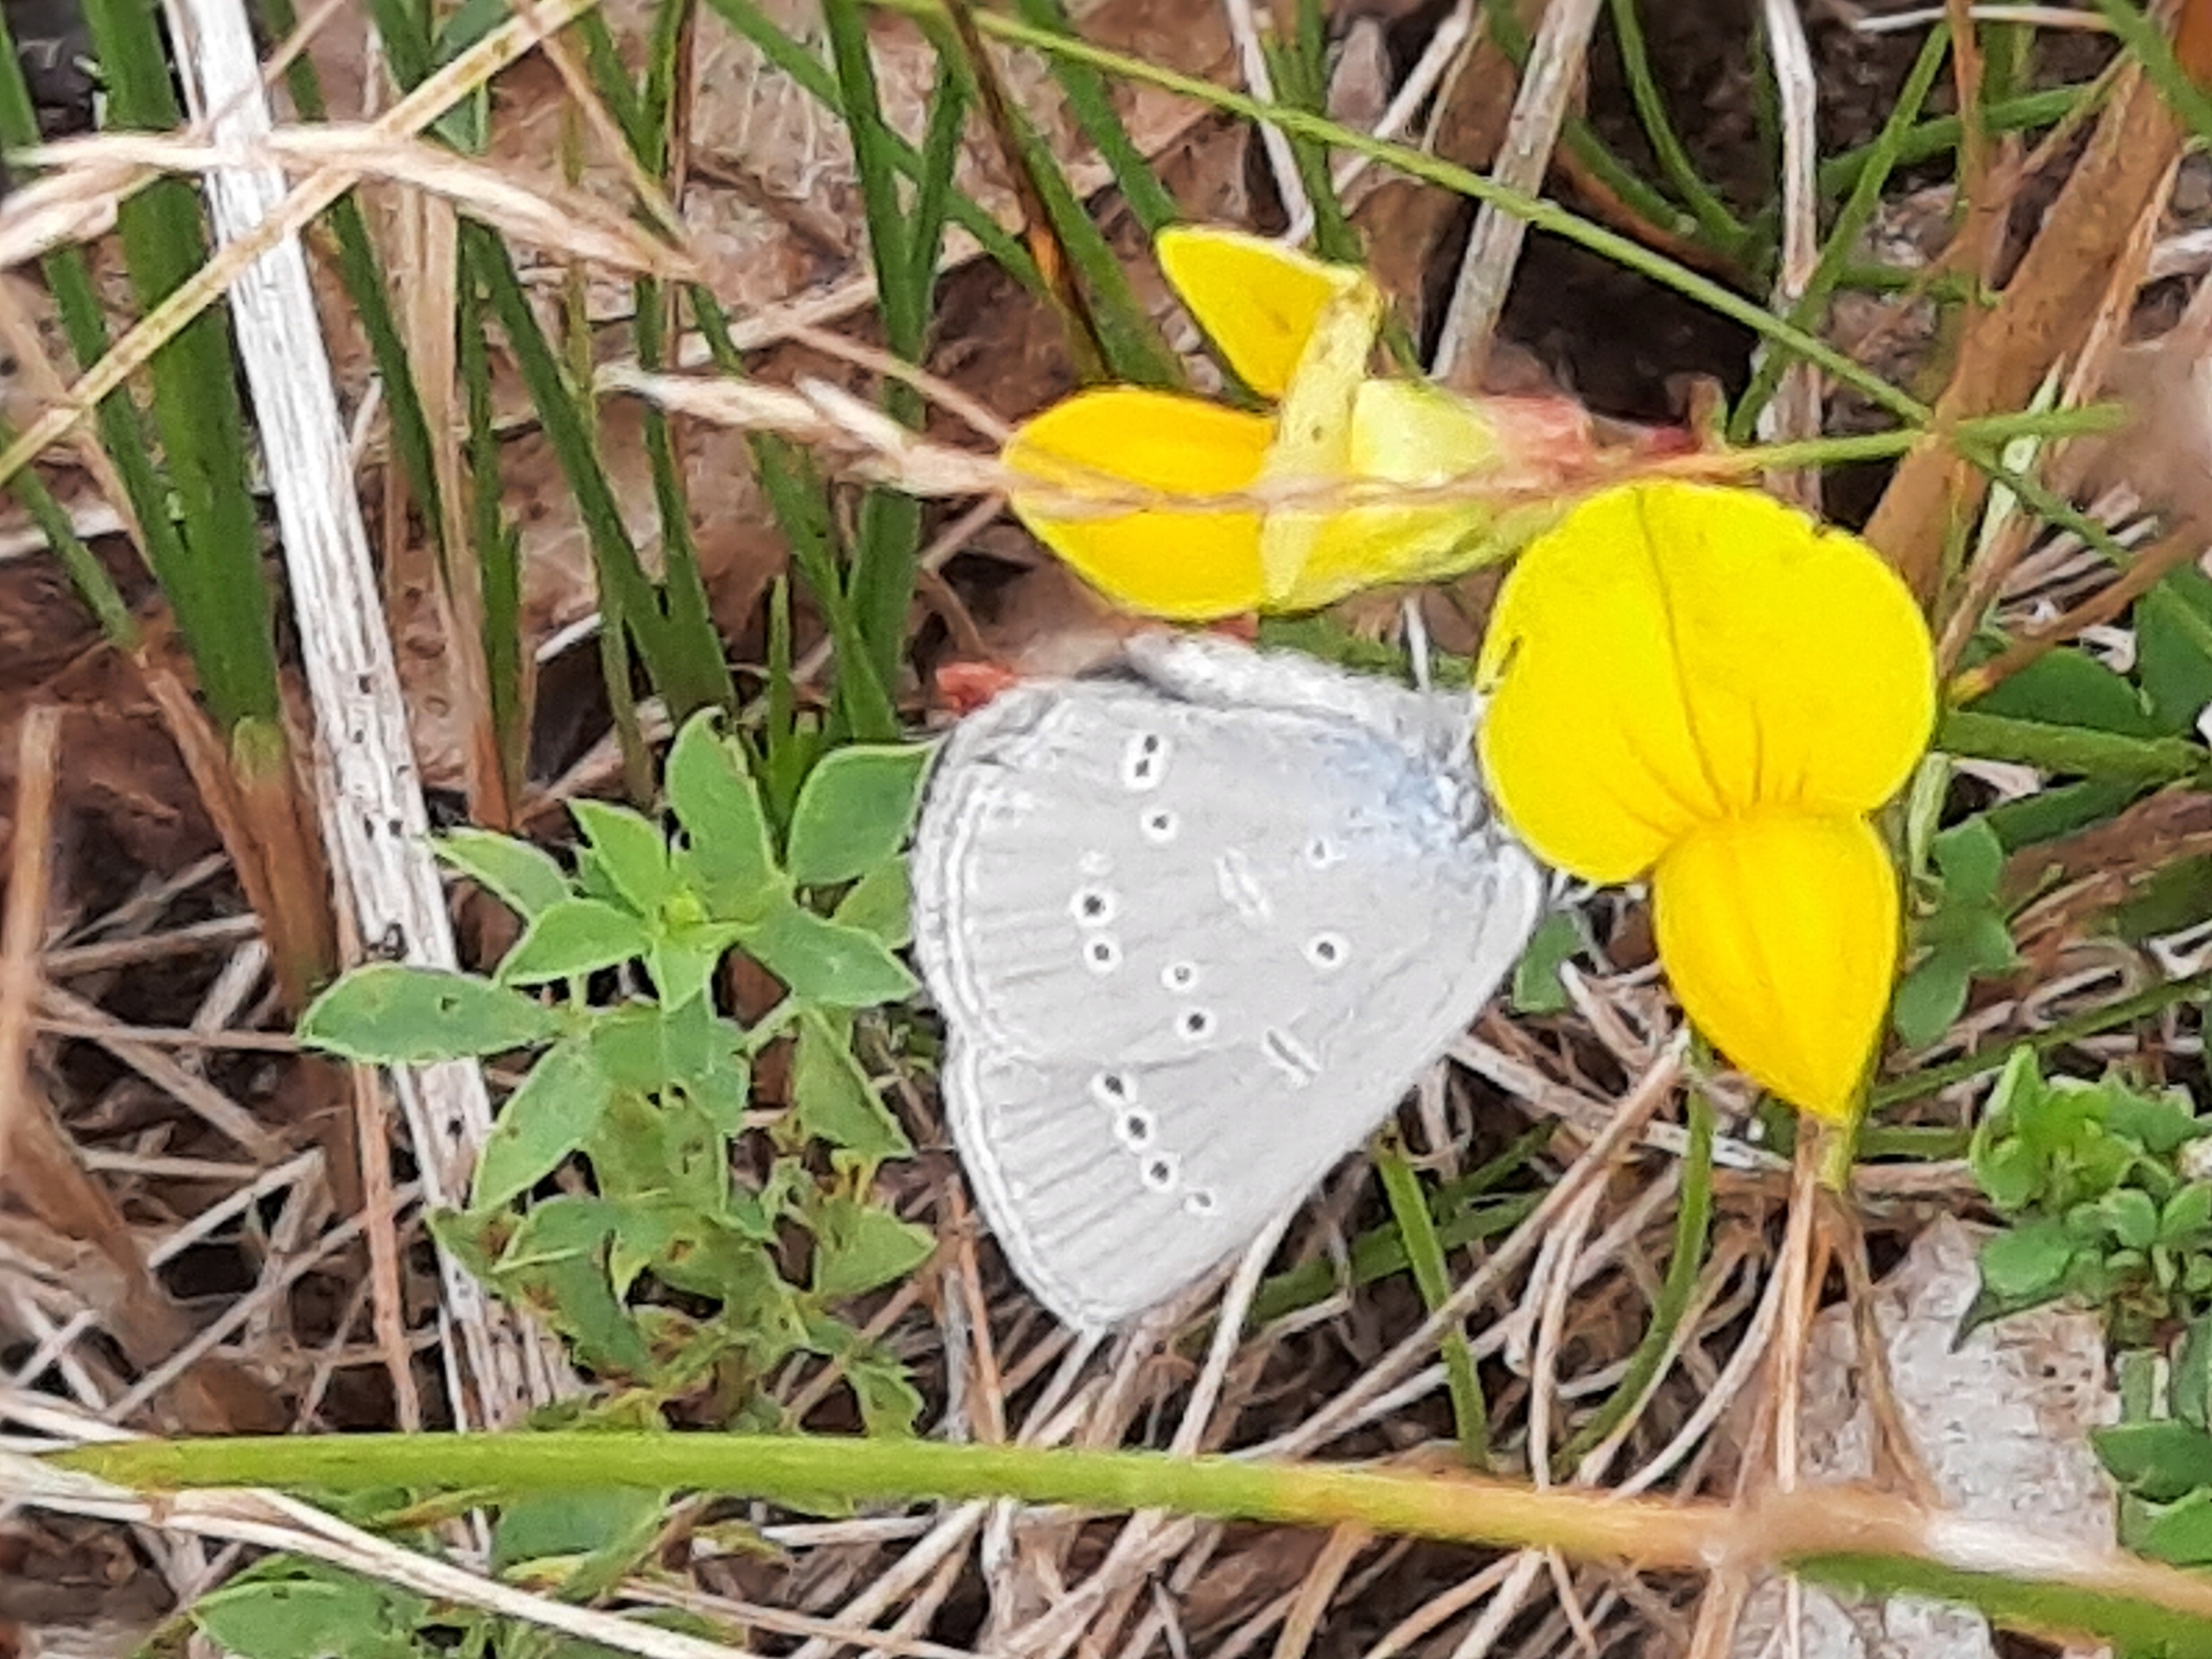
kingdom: Animalia
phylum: Arthropoda
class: Insecta
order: Lepidoptera
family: Lycaenidae
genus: Cupido
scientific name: Cupido minimus
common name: Dværgblåfugl
